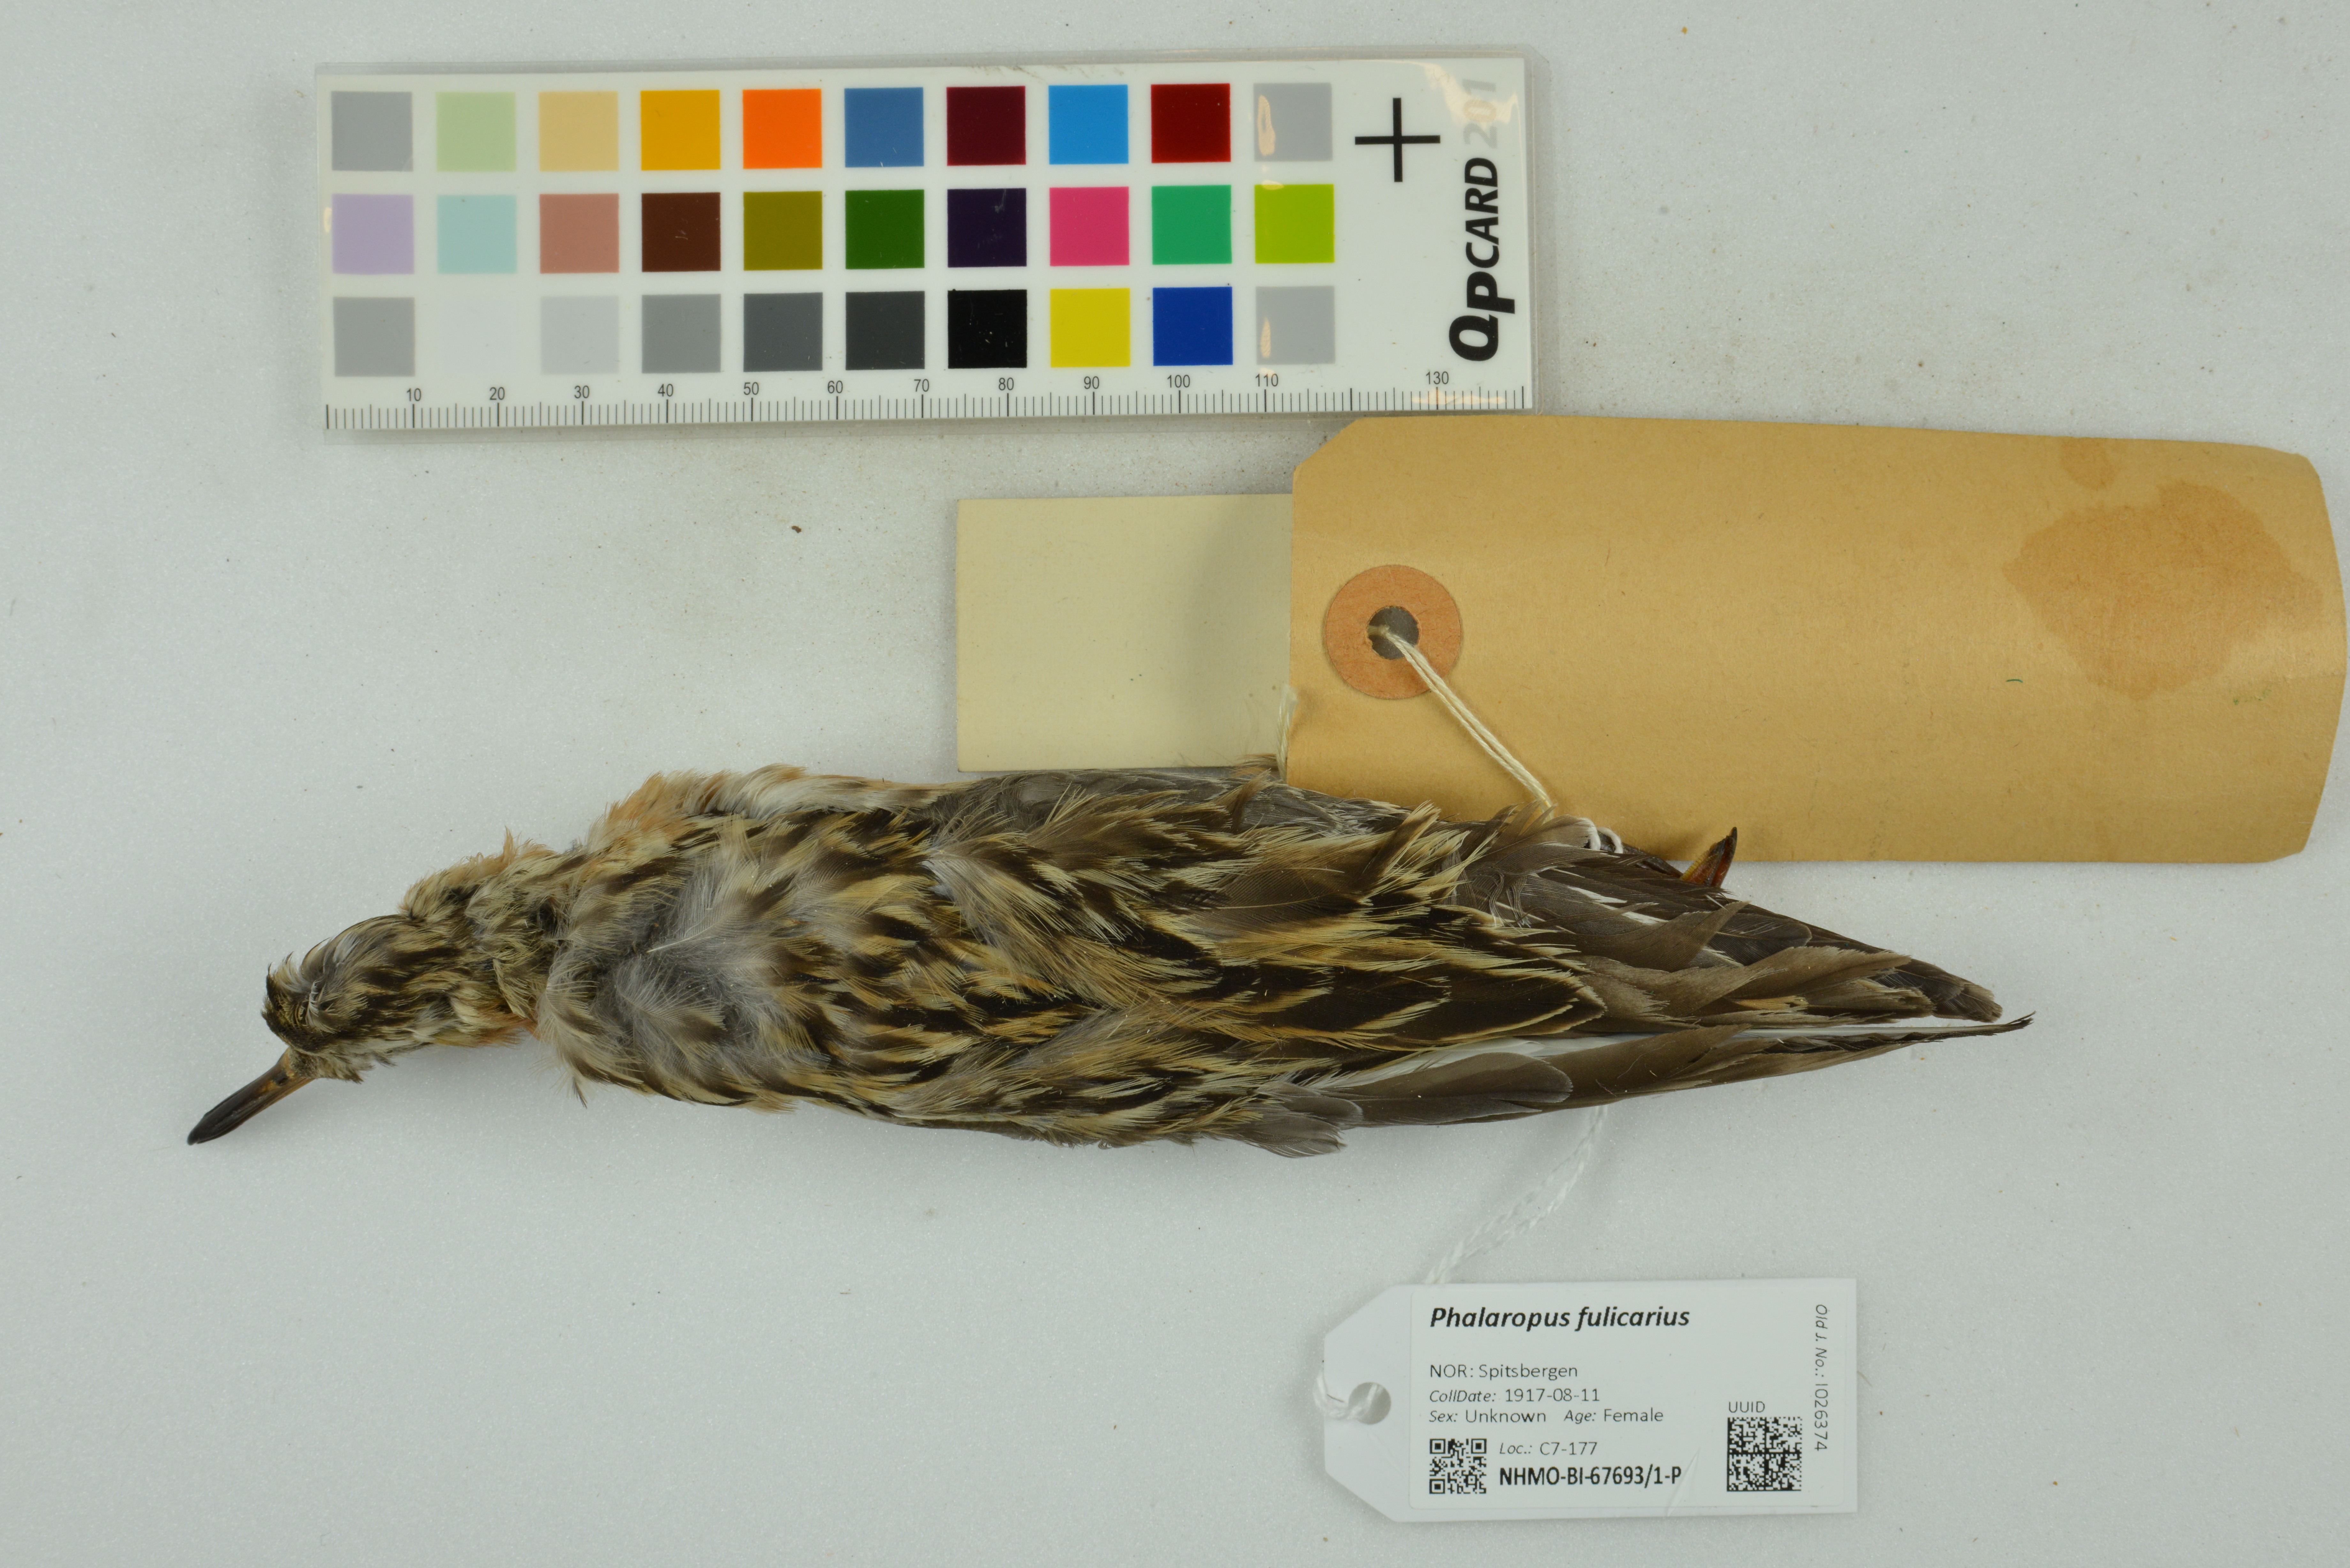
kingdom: Animalia
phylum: Chordata
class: Aves
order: Charadriiformes
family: Scolopacidae
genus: Phalaropus
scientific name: Phalaropus fulicarius
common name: Red phalarope
